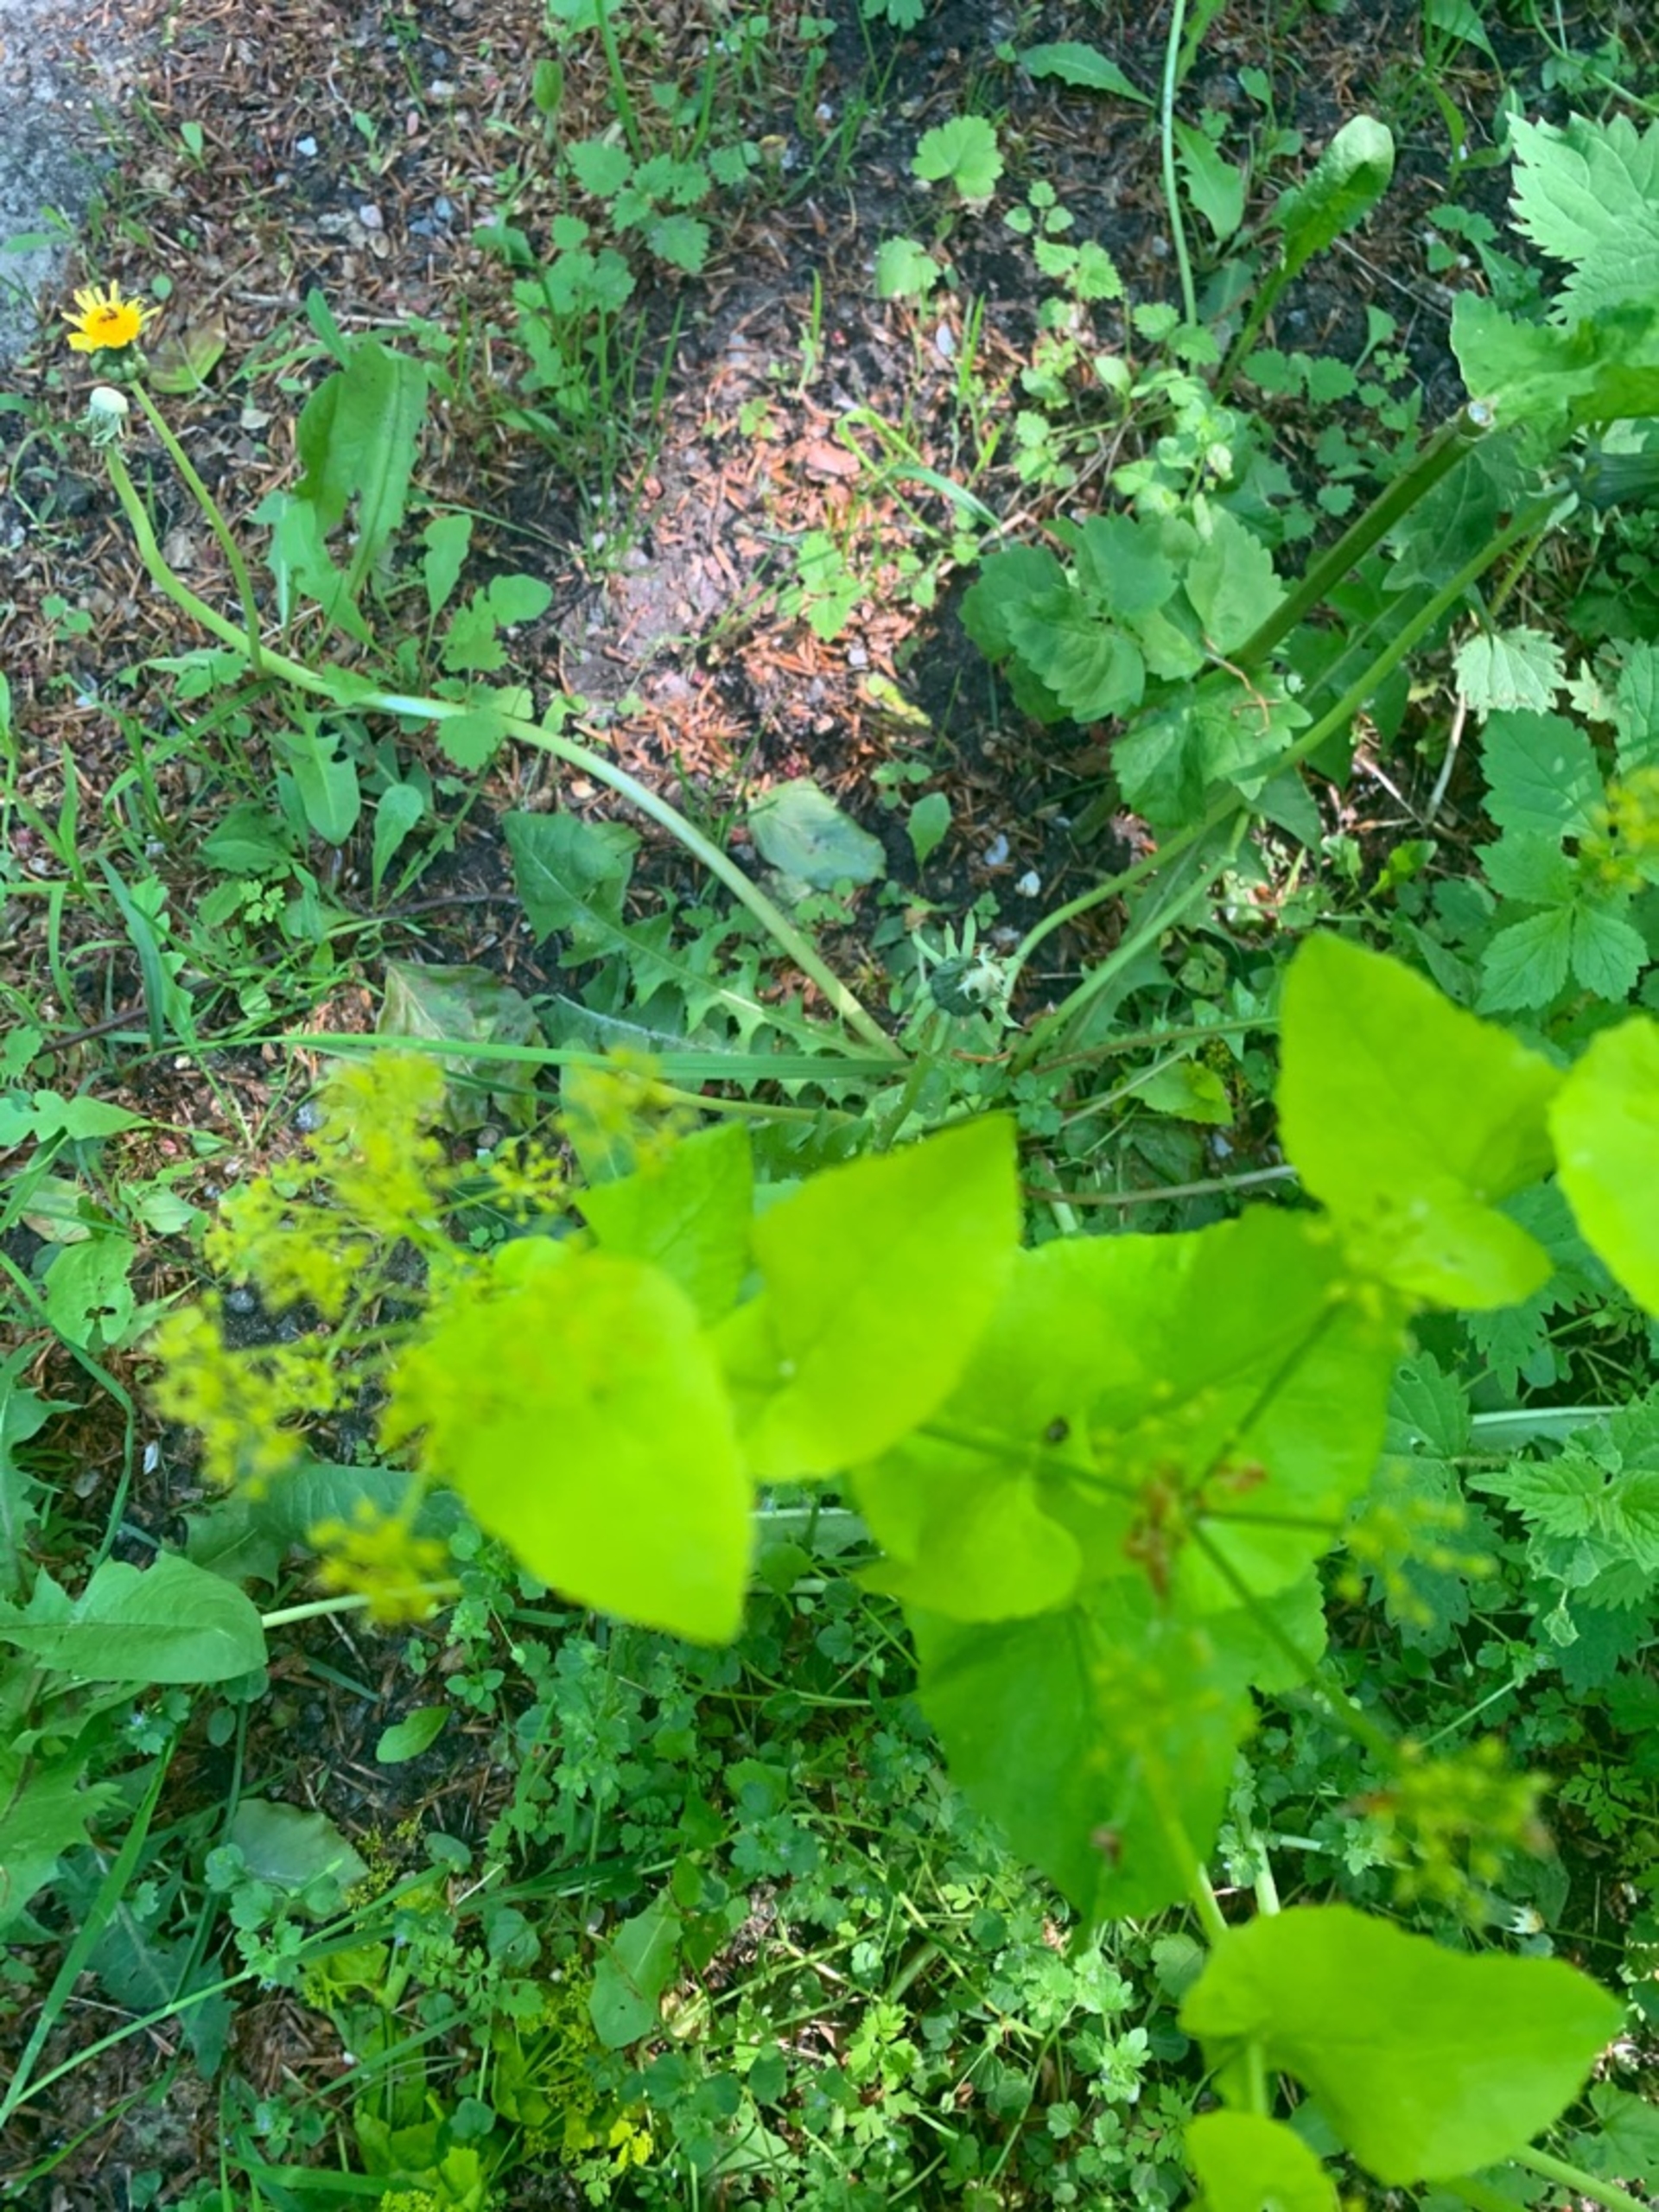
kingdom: Plantae
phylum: Tracheophyta
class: Magnoliopsida
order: Apiales
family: Apiaceae
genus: Smyrnium
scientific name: Smyrnium perfoliatum
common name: Lundgylden
